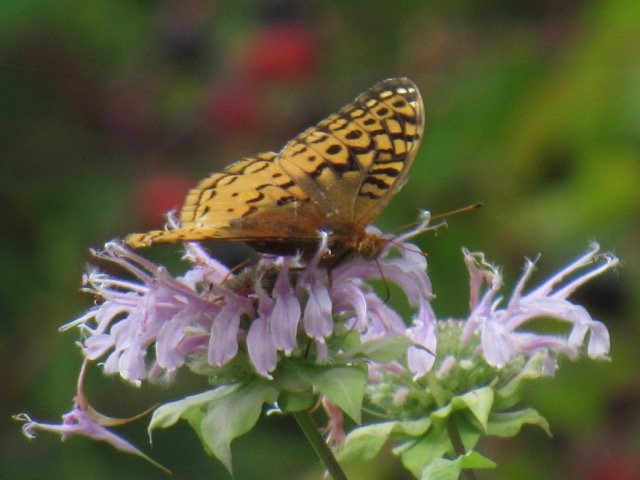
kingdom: Animalia
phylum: Arthropoda
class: Insecta
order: Lepidoptera
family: Nymphalidae
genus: Speyeria
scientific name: Speyeria cybele
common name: Great Spangled Fritillary
